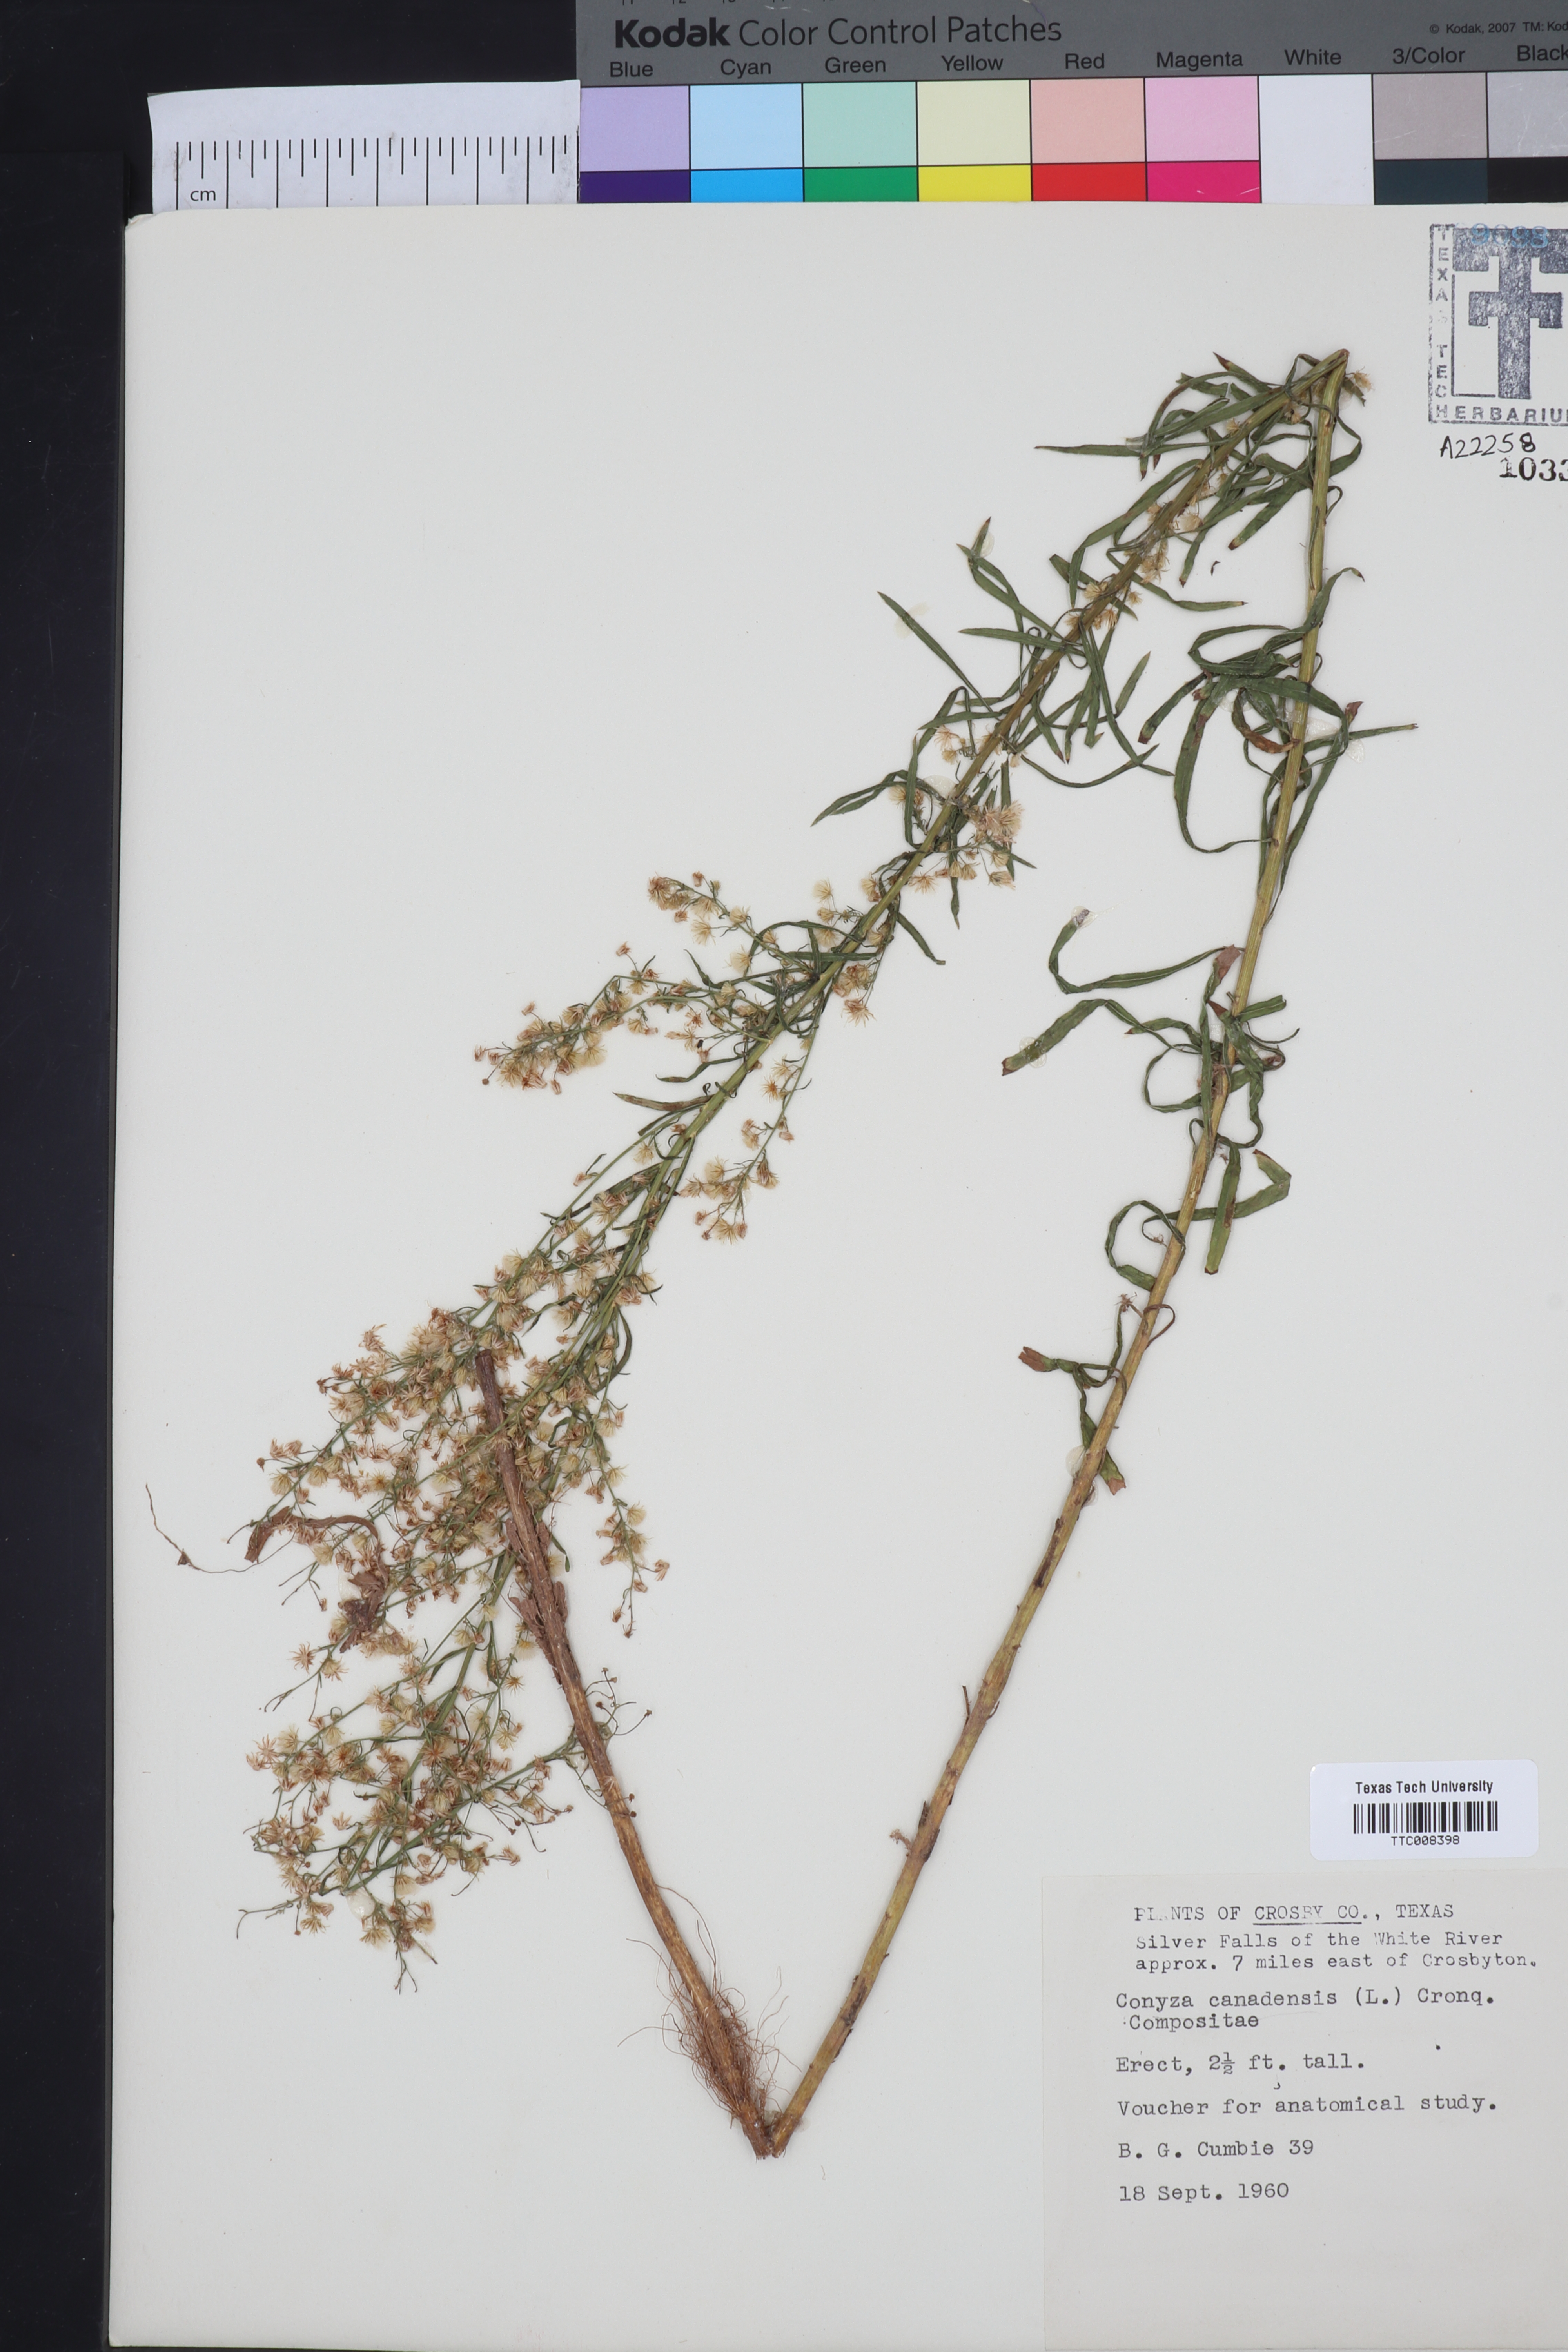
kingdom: Plantae
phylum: Tracheophyta
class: Magnoliopsida
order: Asterales
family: Asteraceae
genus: Erigeron
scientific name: Erigeron canadensis
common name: Canadian fleabane
